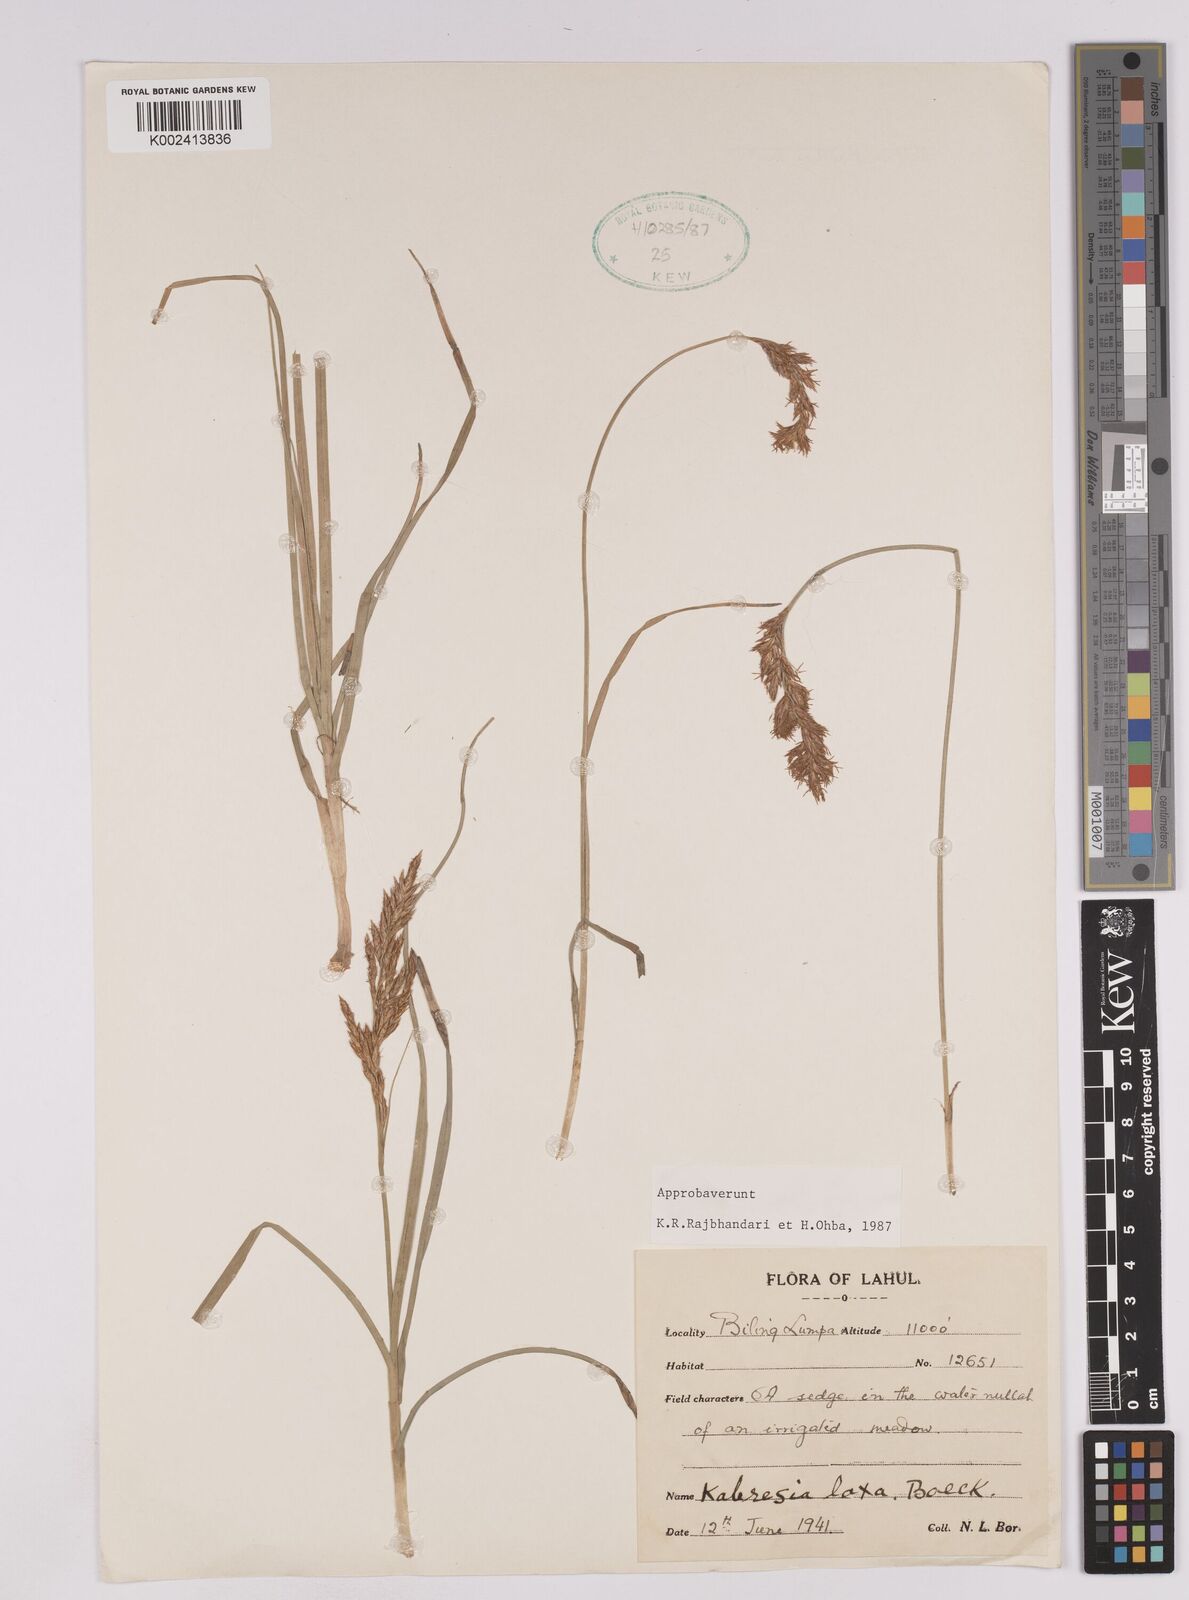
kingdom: Plantae
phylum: Tracheophyta
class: Liliopsida
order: Poales
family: Cyperaceae
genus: Carex
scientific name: Carex pseudolaxa
